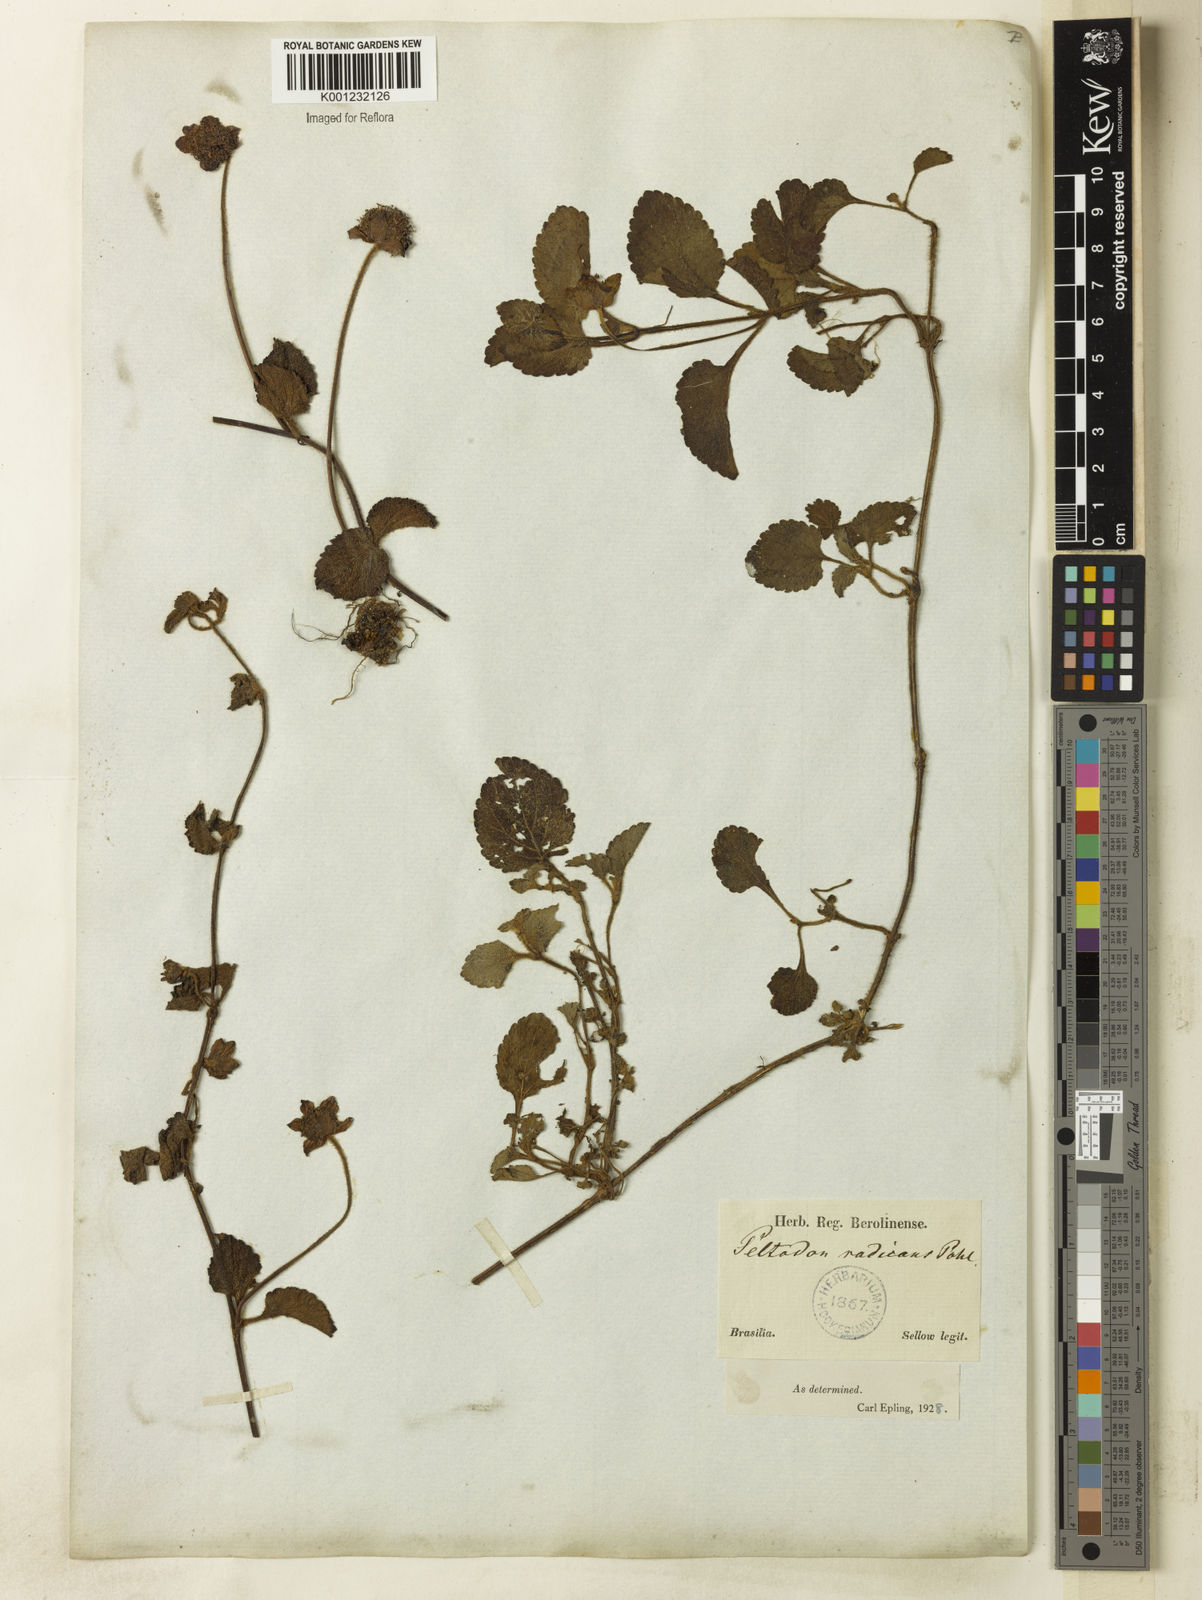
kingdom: Plantae
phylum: Tracheophyta
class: Magnoliopsida
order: Lamiales
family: Lamiaceae
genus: Hyptis
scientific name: Hyptis radicans
